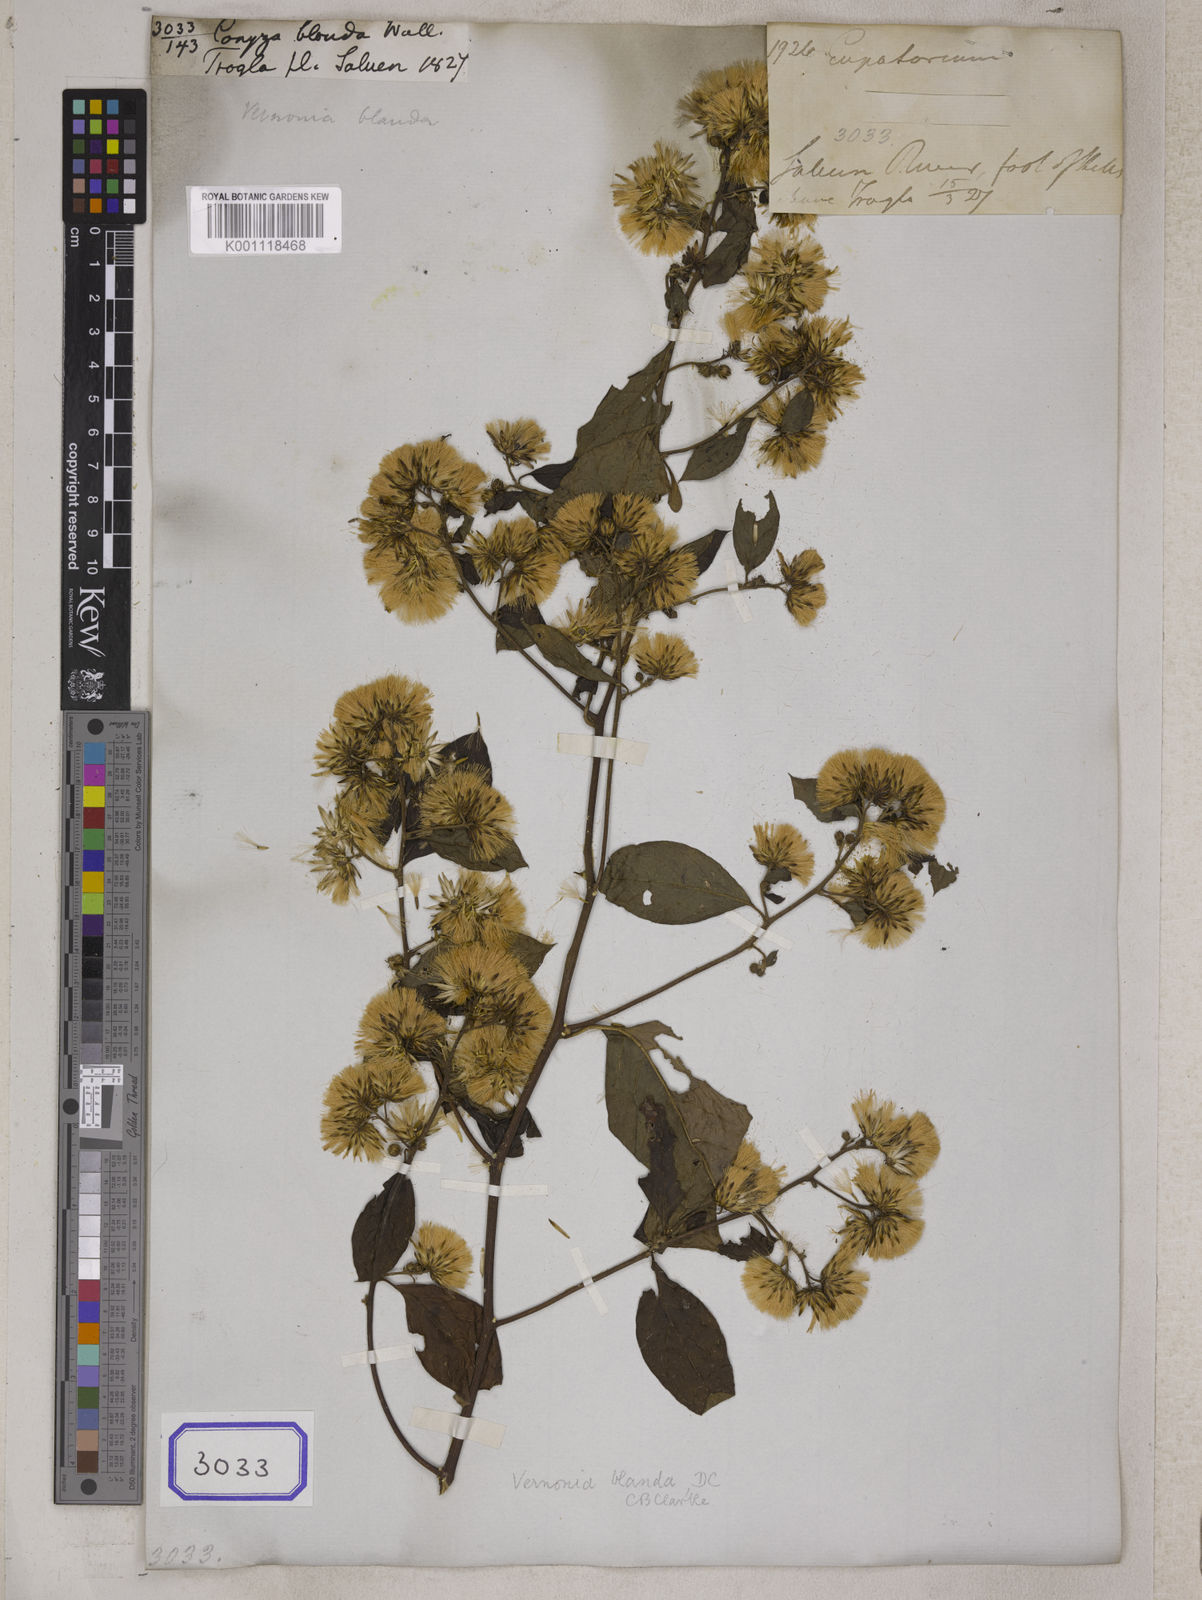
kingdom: Plantae
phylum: Tracheophyta
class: Magnoliopsida
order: Asterales
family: Asteraceae
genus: Decaneuropsis
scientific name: Decaneuropsis blanda
